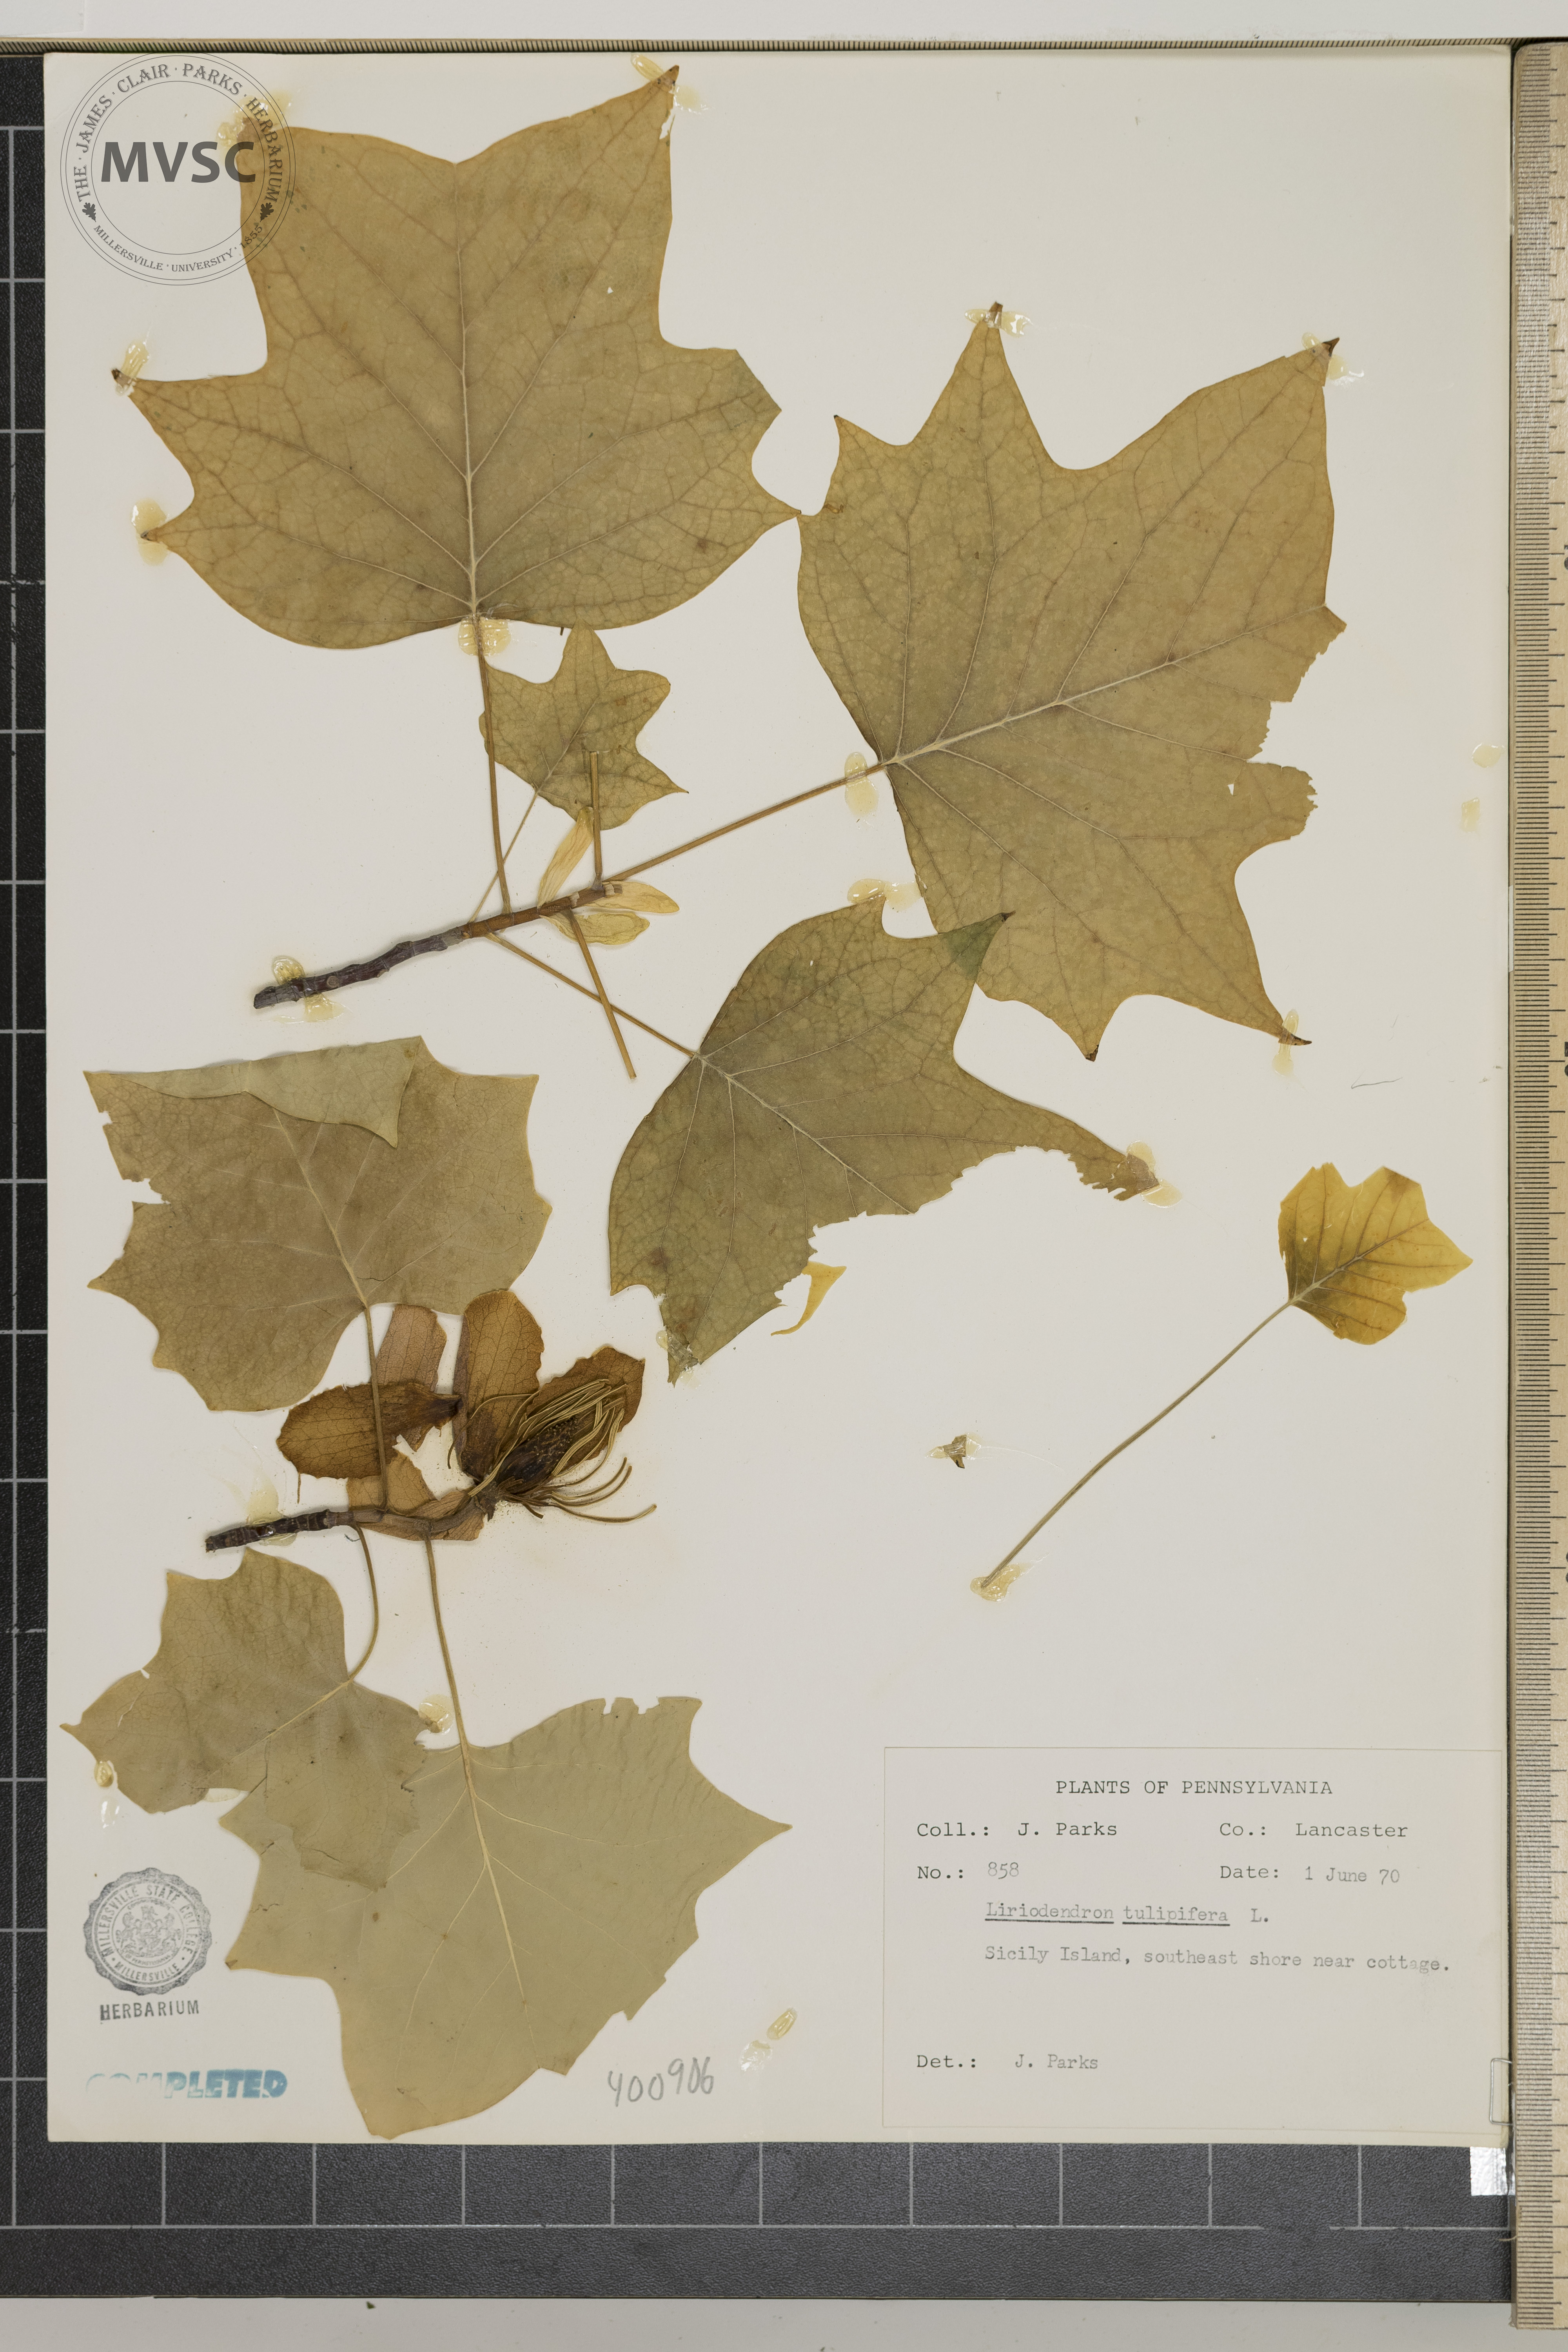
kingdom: Plantae
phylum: Tracheophyta
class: Magnoliopsida
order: Magnoliales
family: Magnoliaceae
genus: Liriodendron
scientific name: Liriodendron tulipifera
